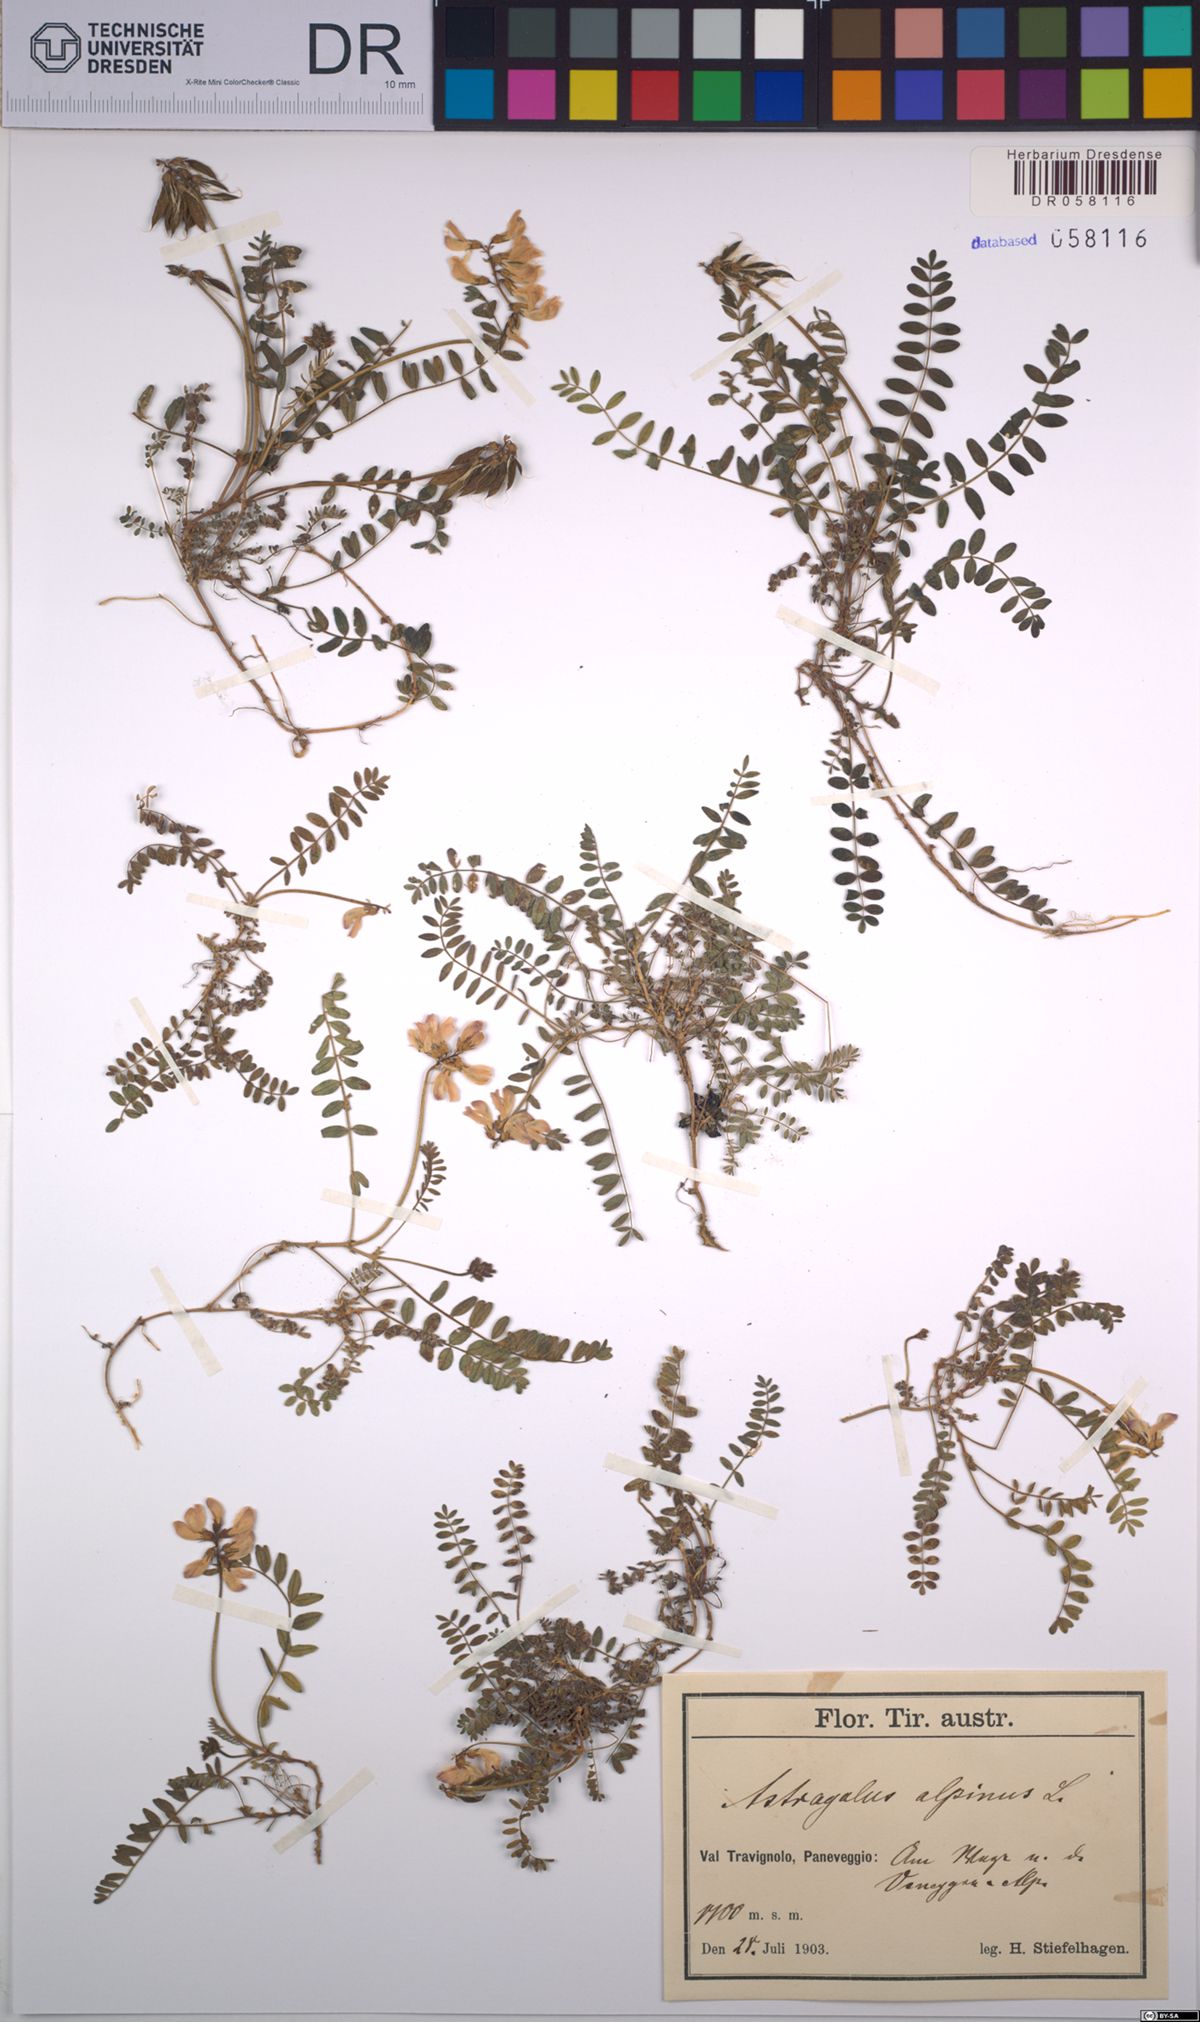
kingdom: Plantae
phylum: Tracheophyta
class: Magnoliopsida
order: Fabales
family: Fabaceae
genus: Astragalus
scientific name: Astragalus alpinus
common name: Alpine milk-vetch
